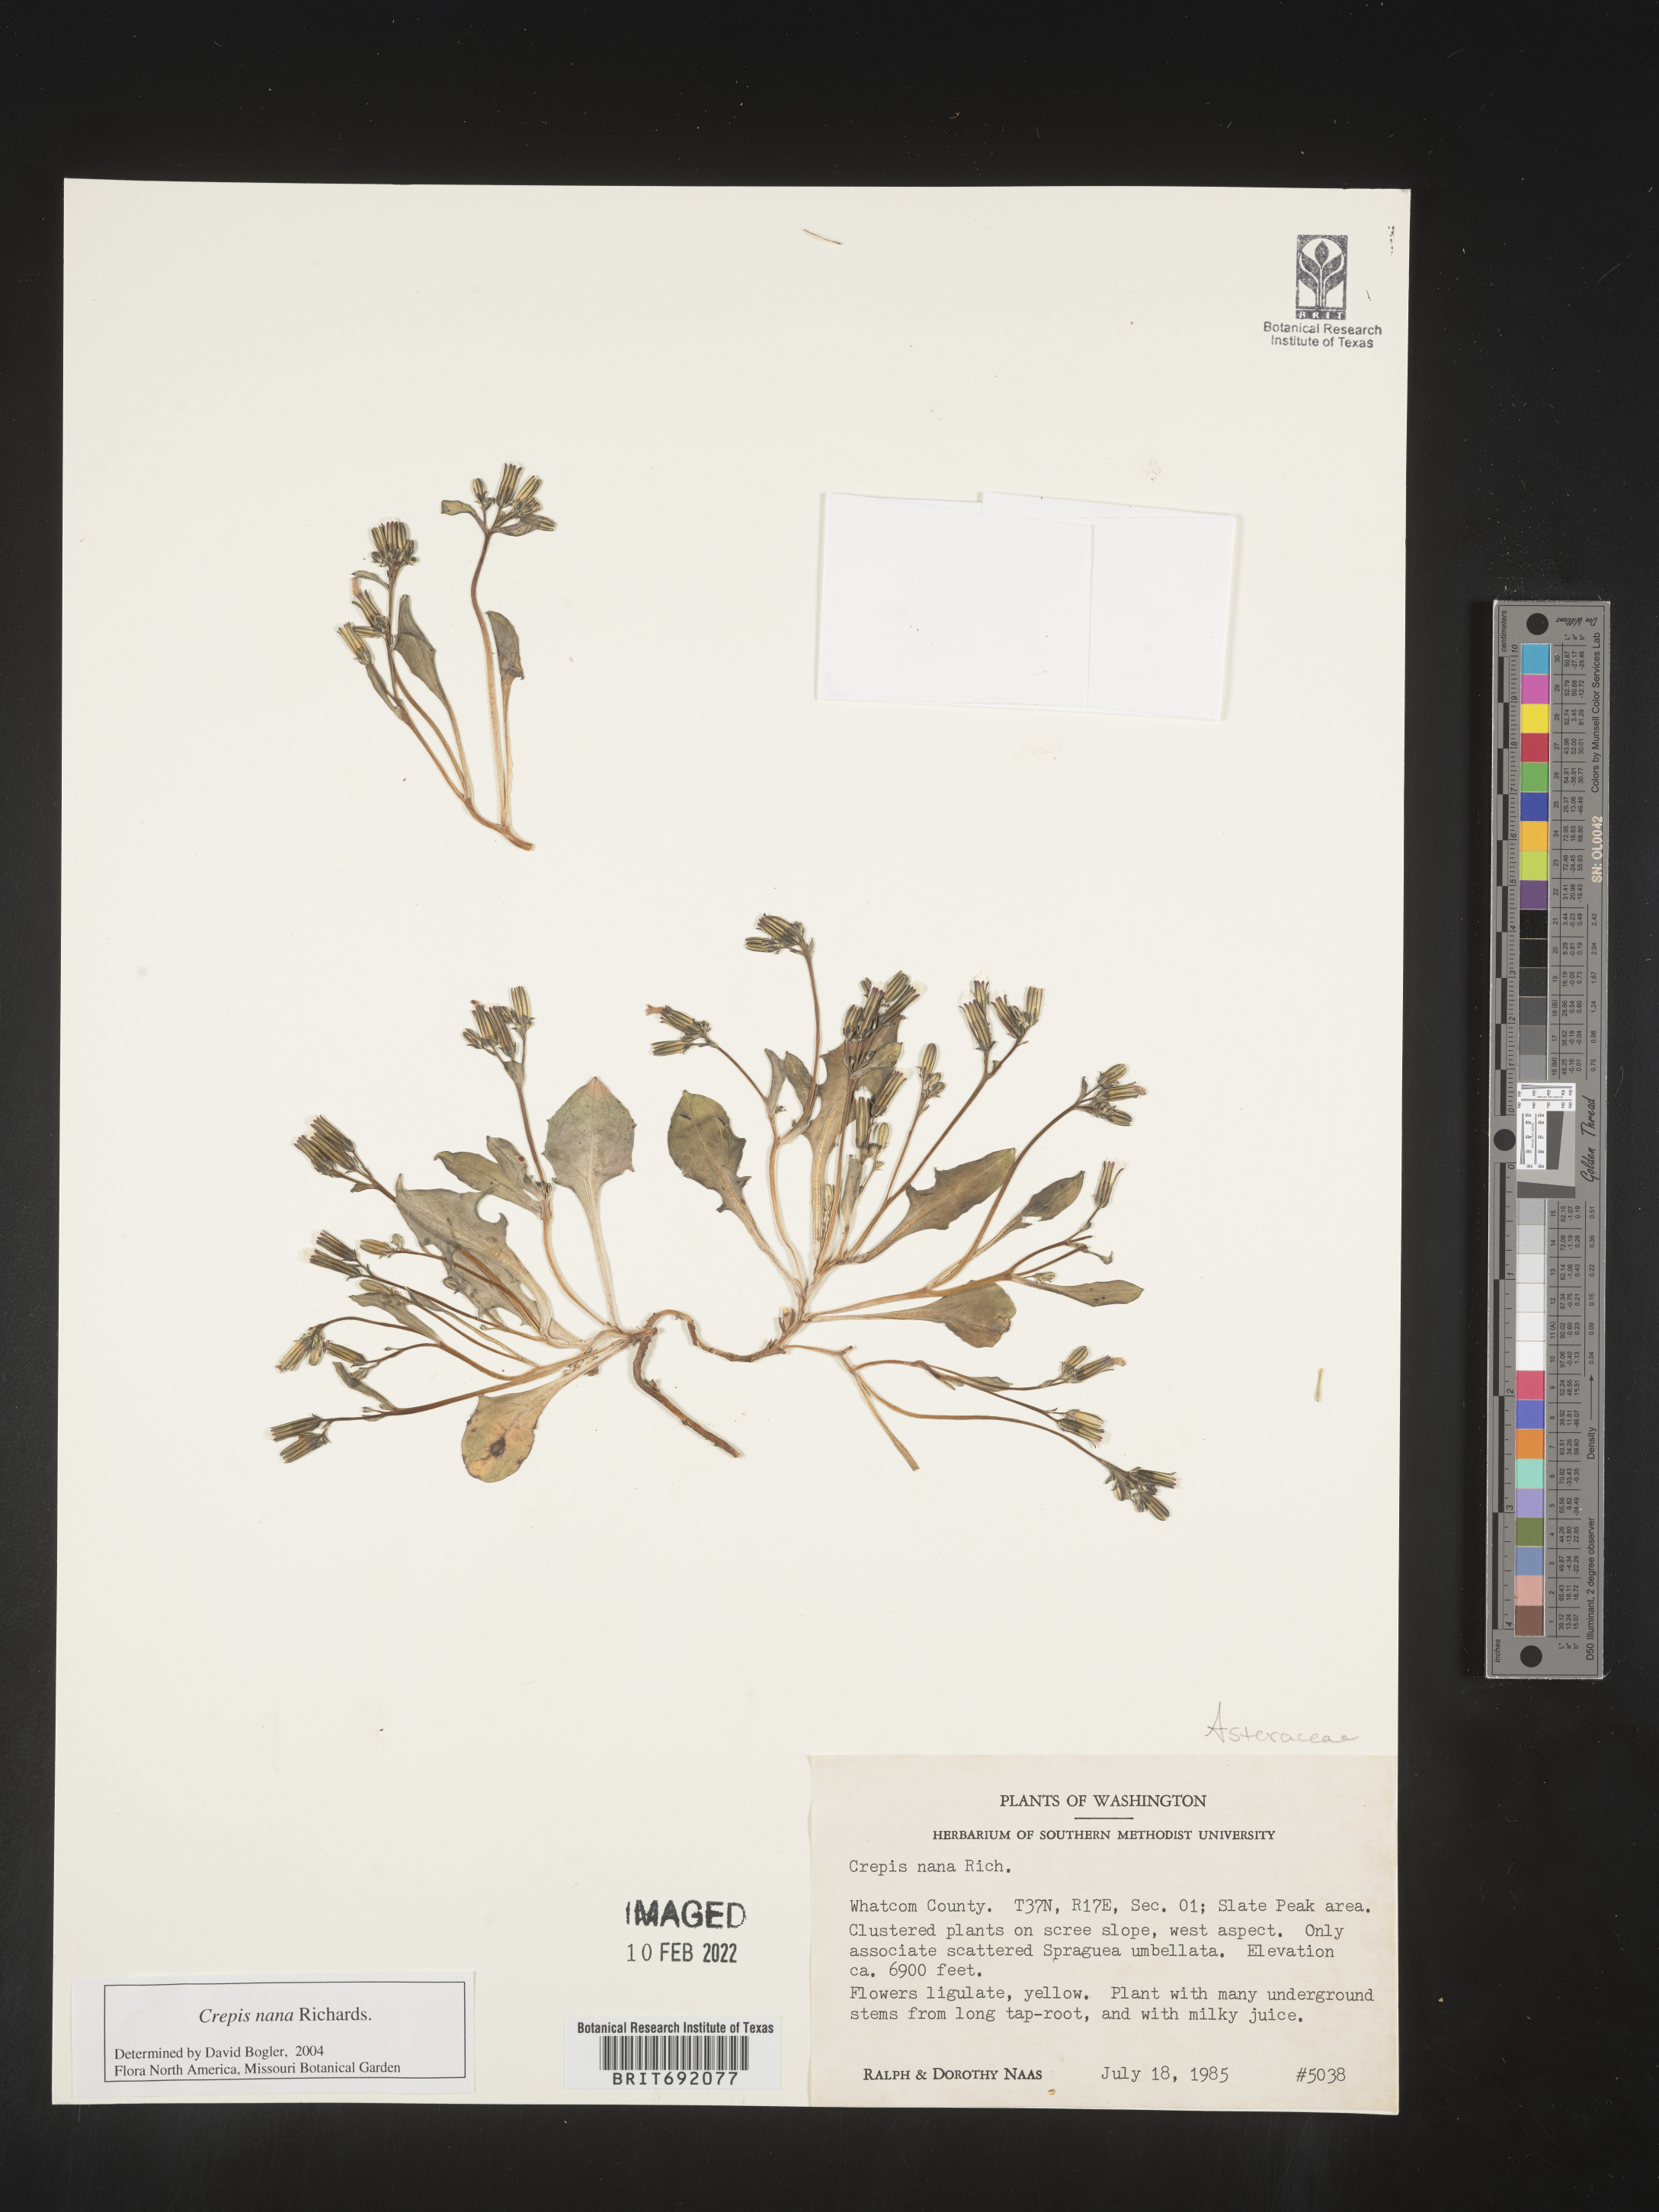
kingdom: Plantae
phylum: Tracheophyta
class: Magnoliopsida
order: Asterales
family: Asteraceae
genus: Crepis
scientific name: Crepis
